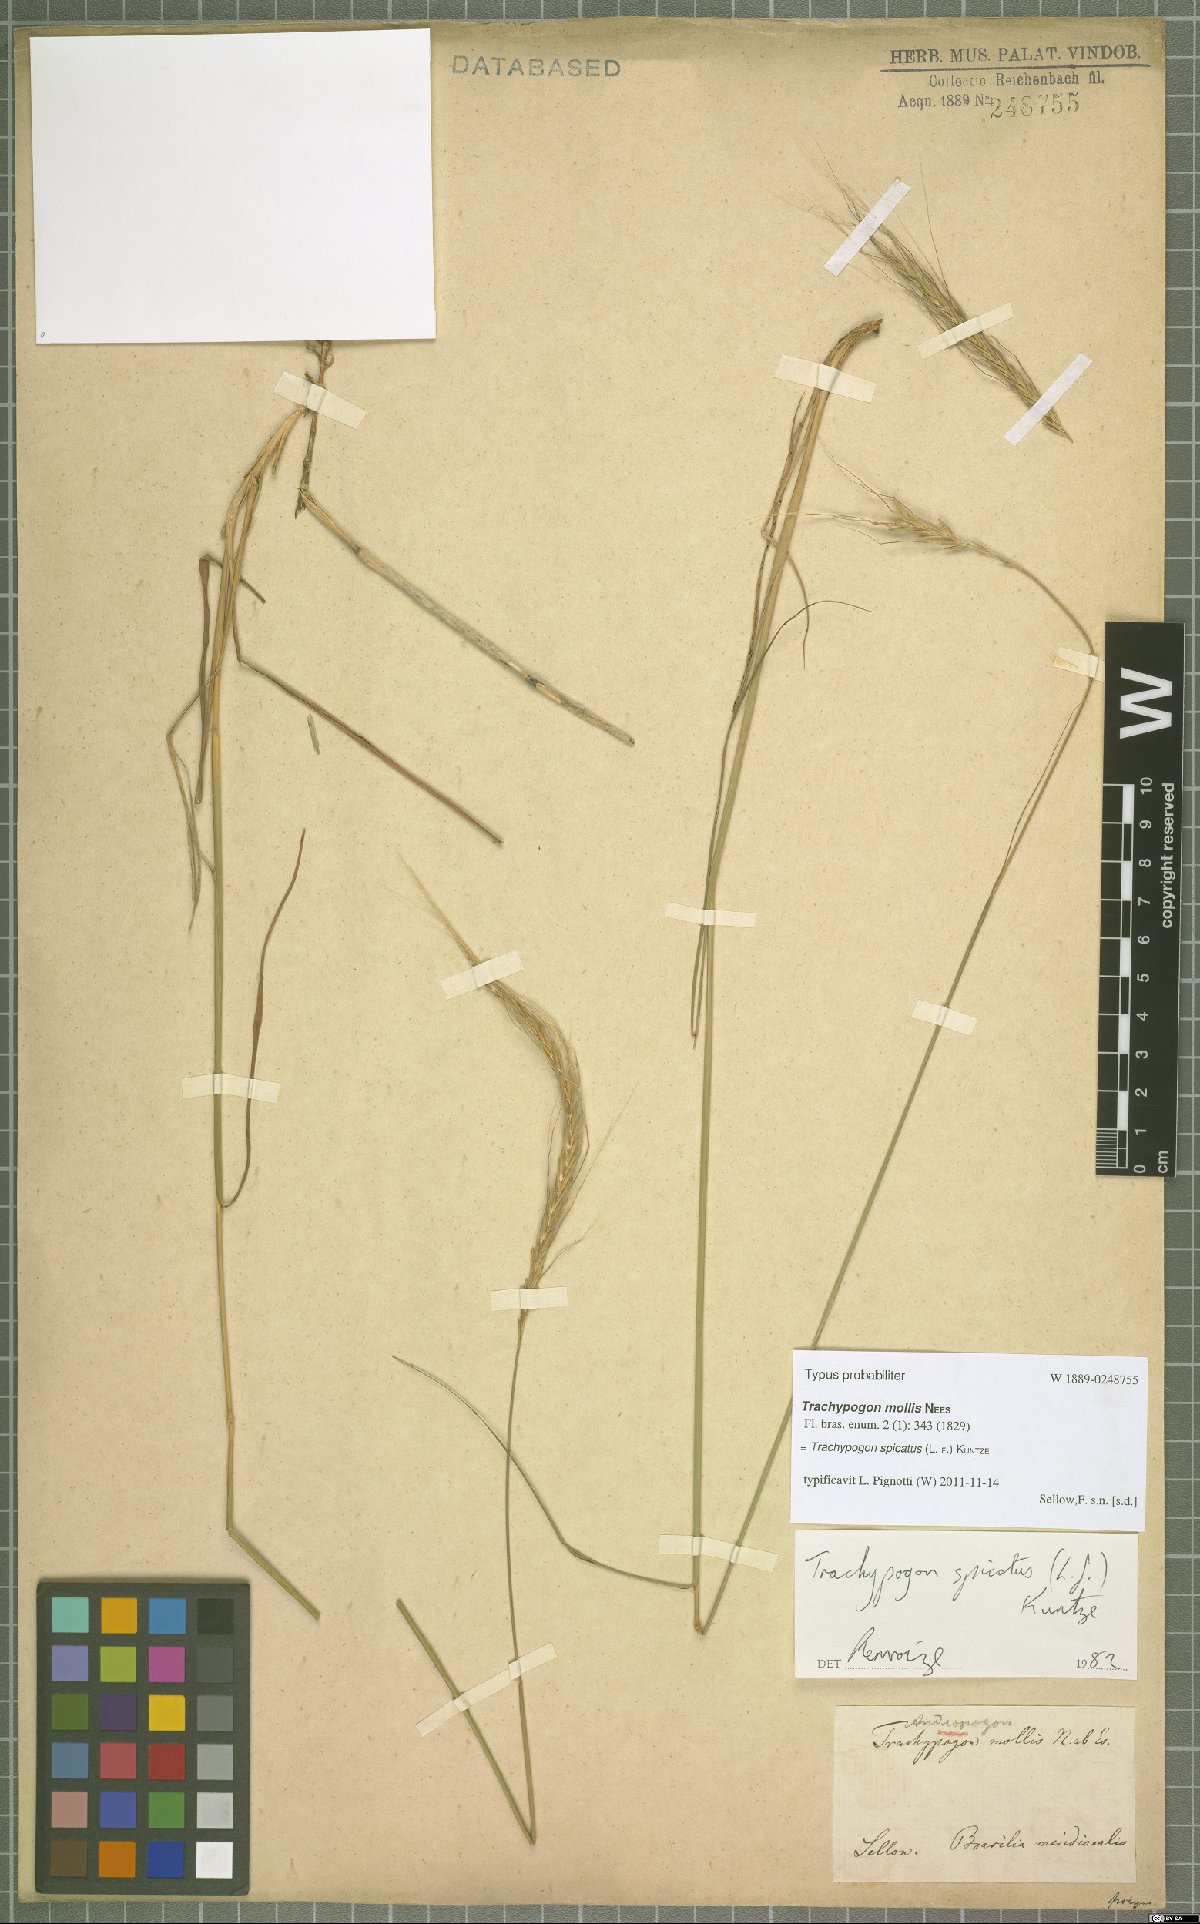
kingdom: Plantae
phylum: Tracheophyta
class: Liliopsida
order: Poales
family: Poaceae
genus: Trachypogon
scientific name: Trachypogon spicatus
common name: Crinkle-awn
